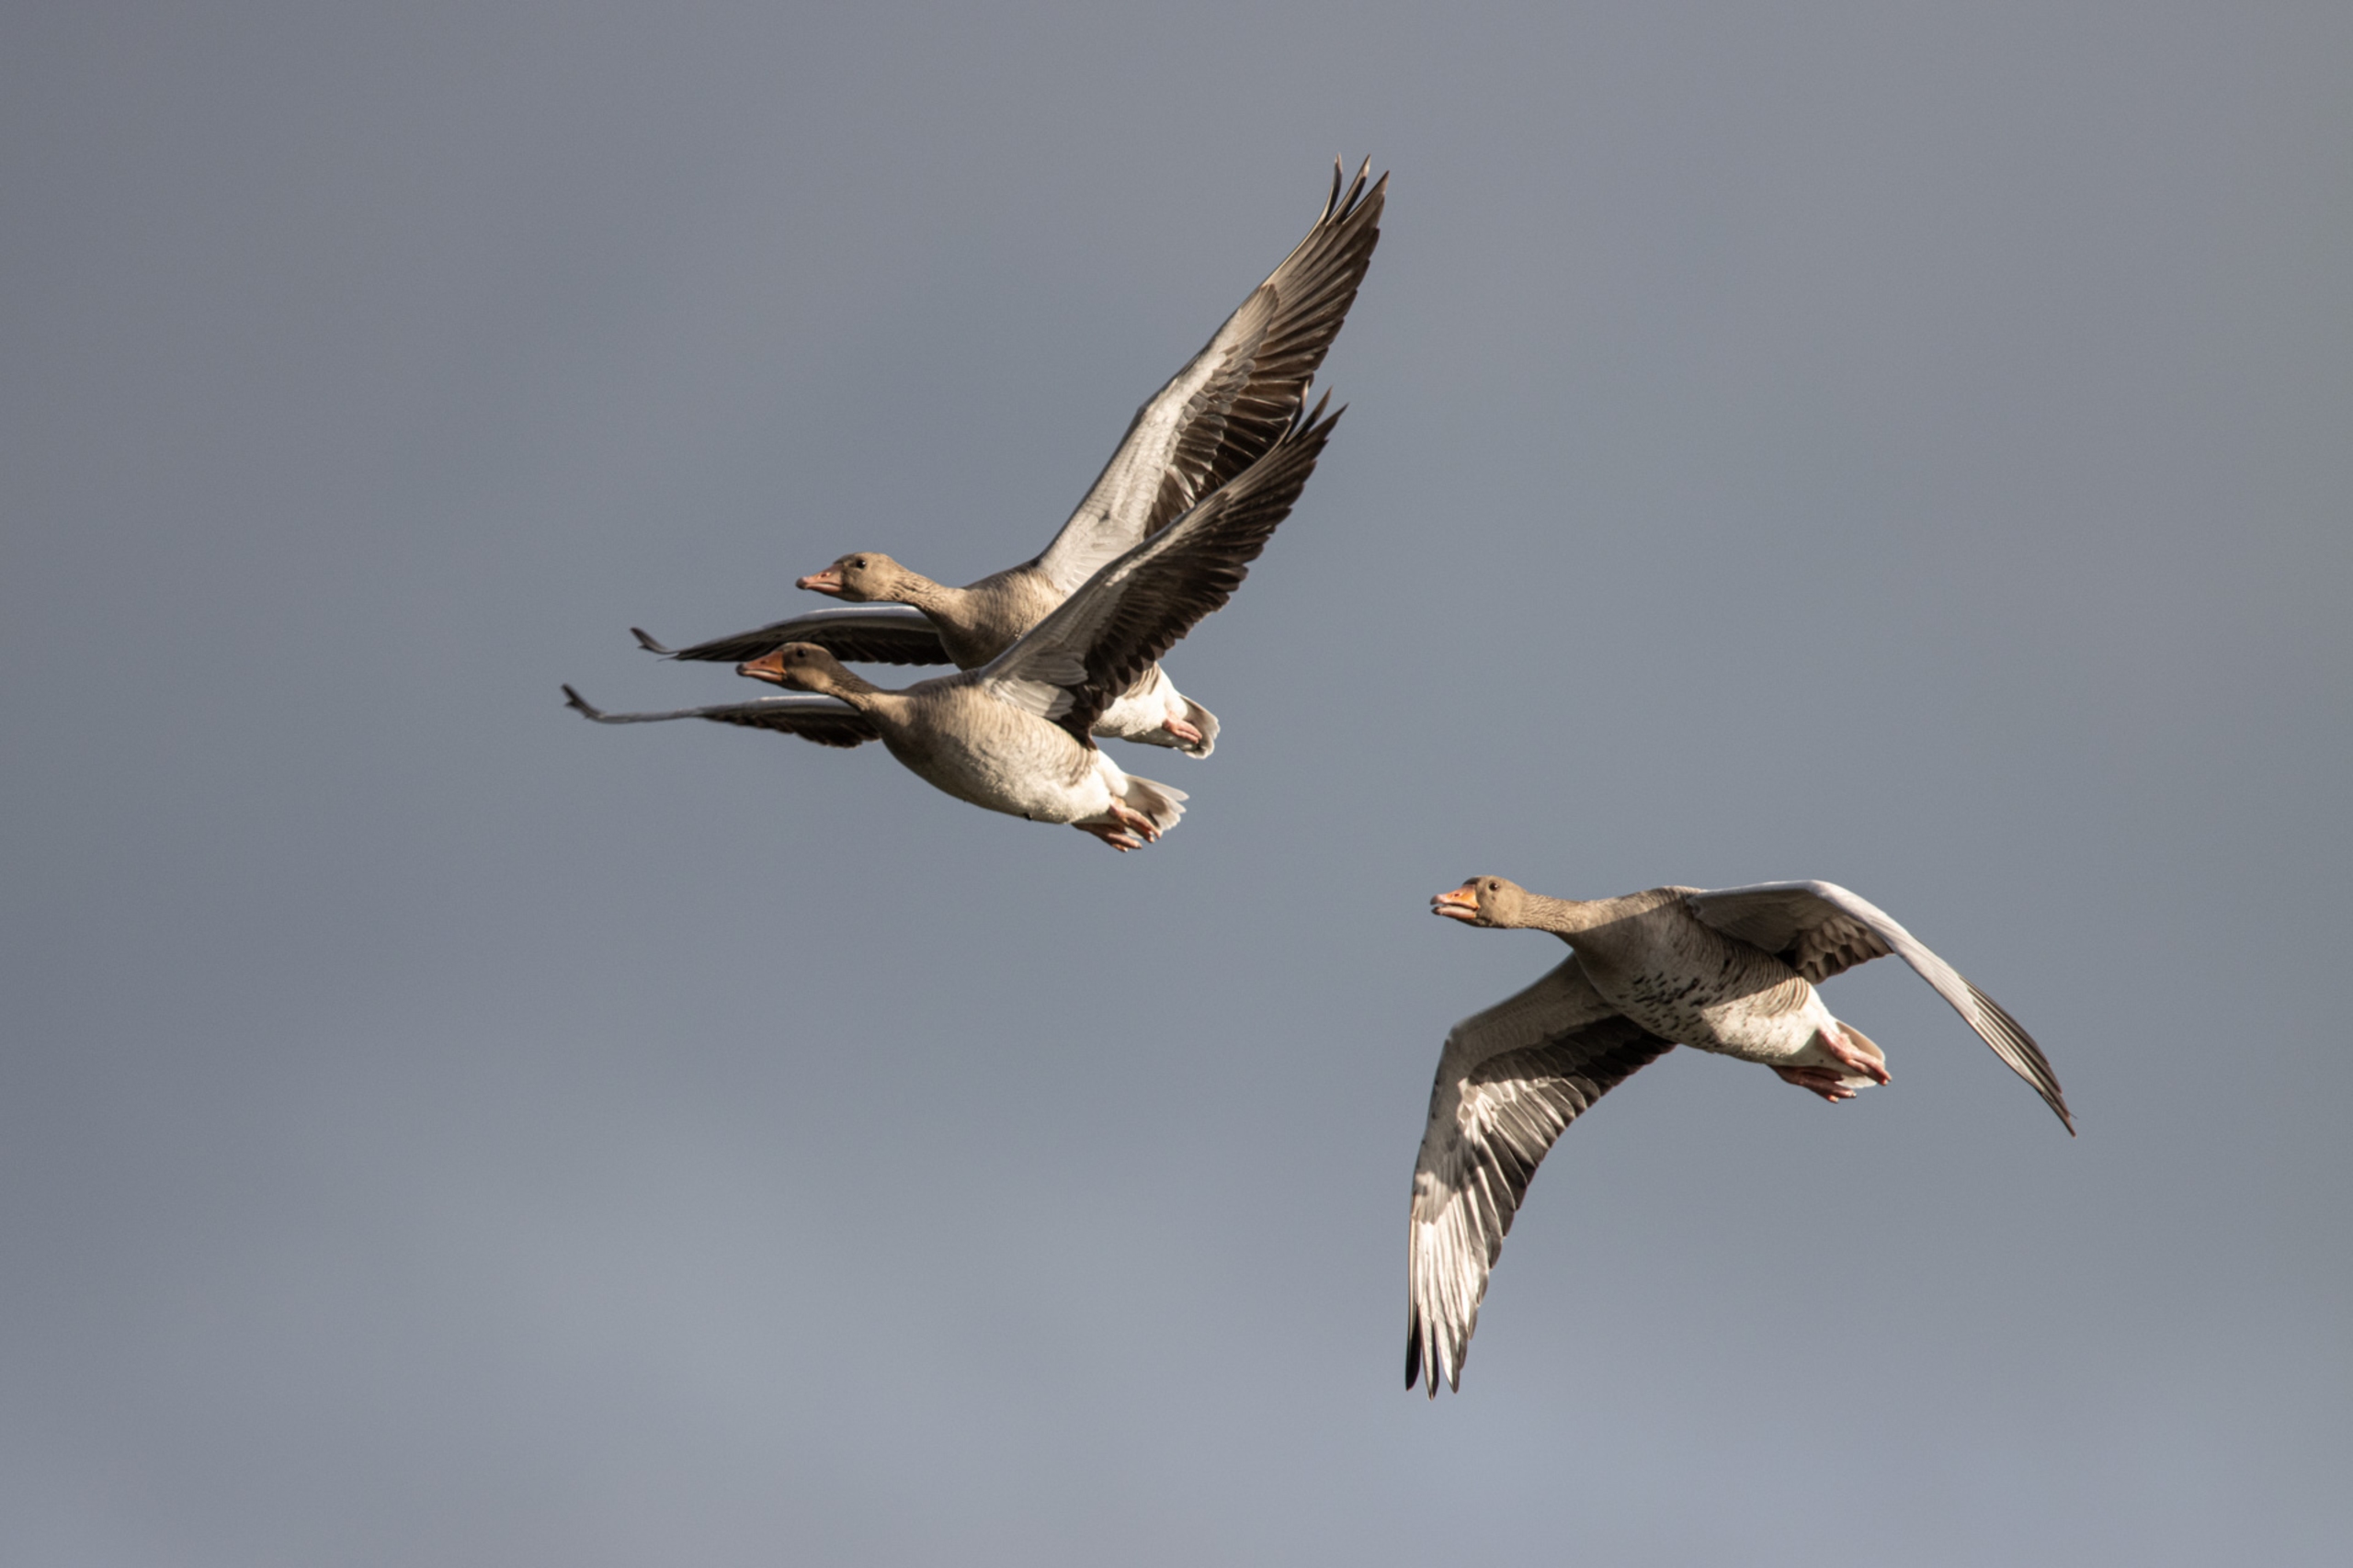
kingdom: Animalia
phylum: Chordata
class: Aves
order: Anseriformes
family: Anatidae
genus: Anser
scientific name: Anser anser
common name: Grågås
